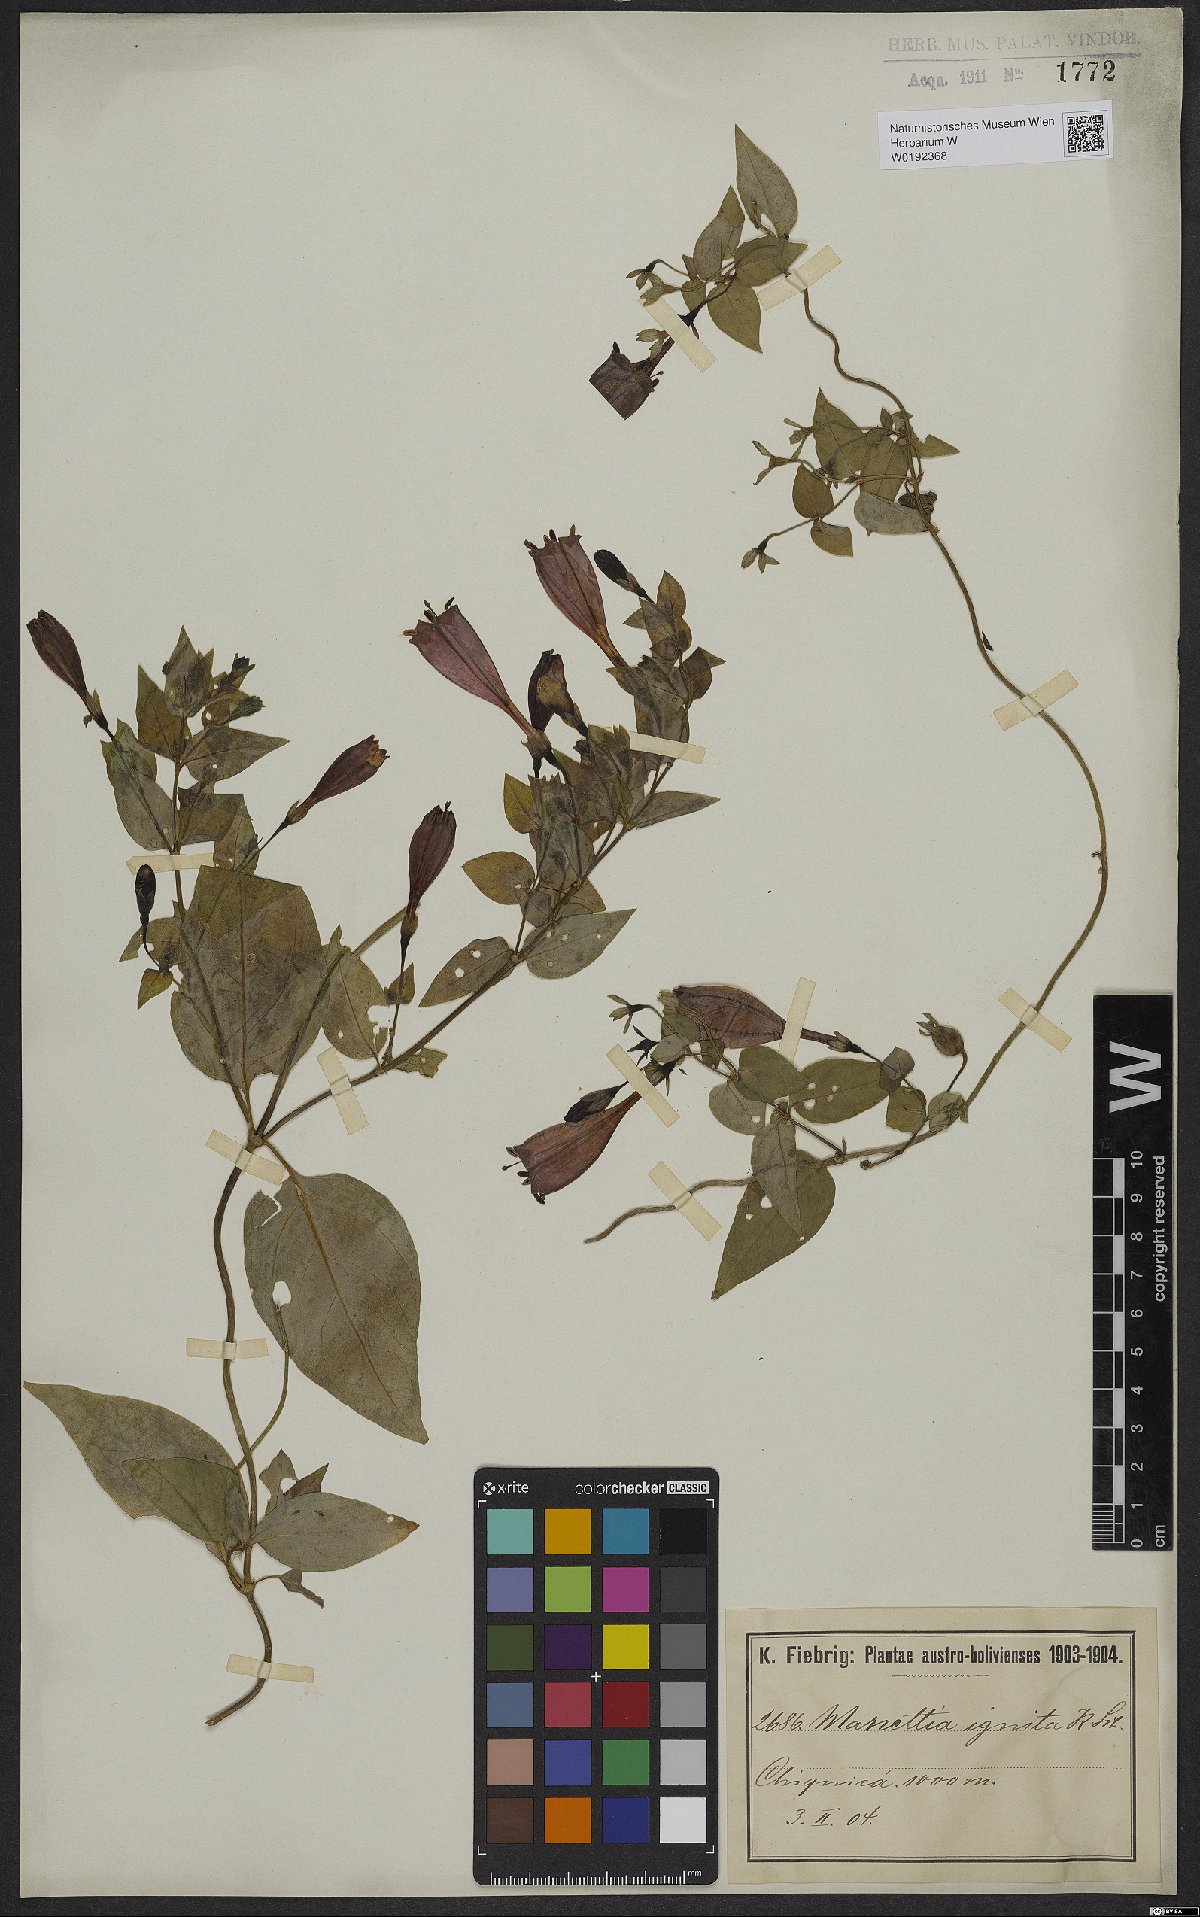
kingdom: Plantae
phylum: Tracheophyta
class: Magnoliopsida
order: Gentianales
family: Rubiaceae
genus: Manettia
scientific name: Manettia cordifolia
